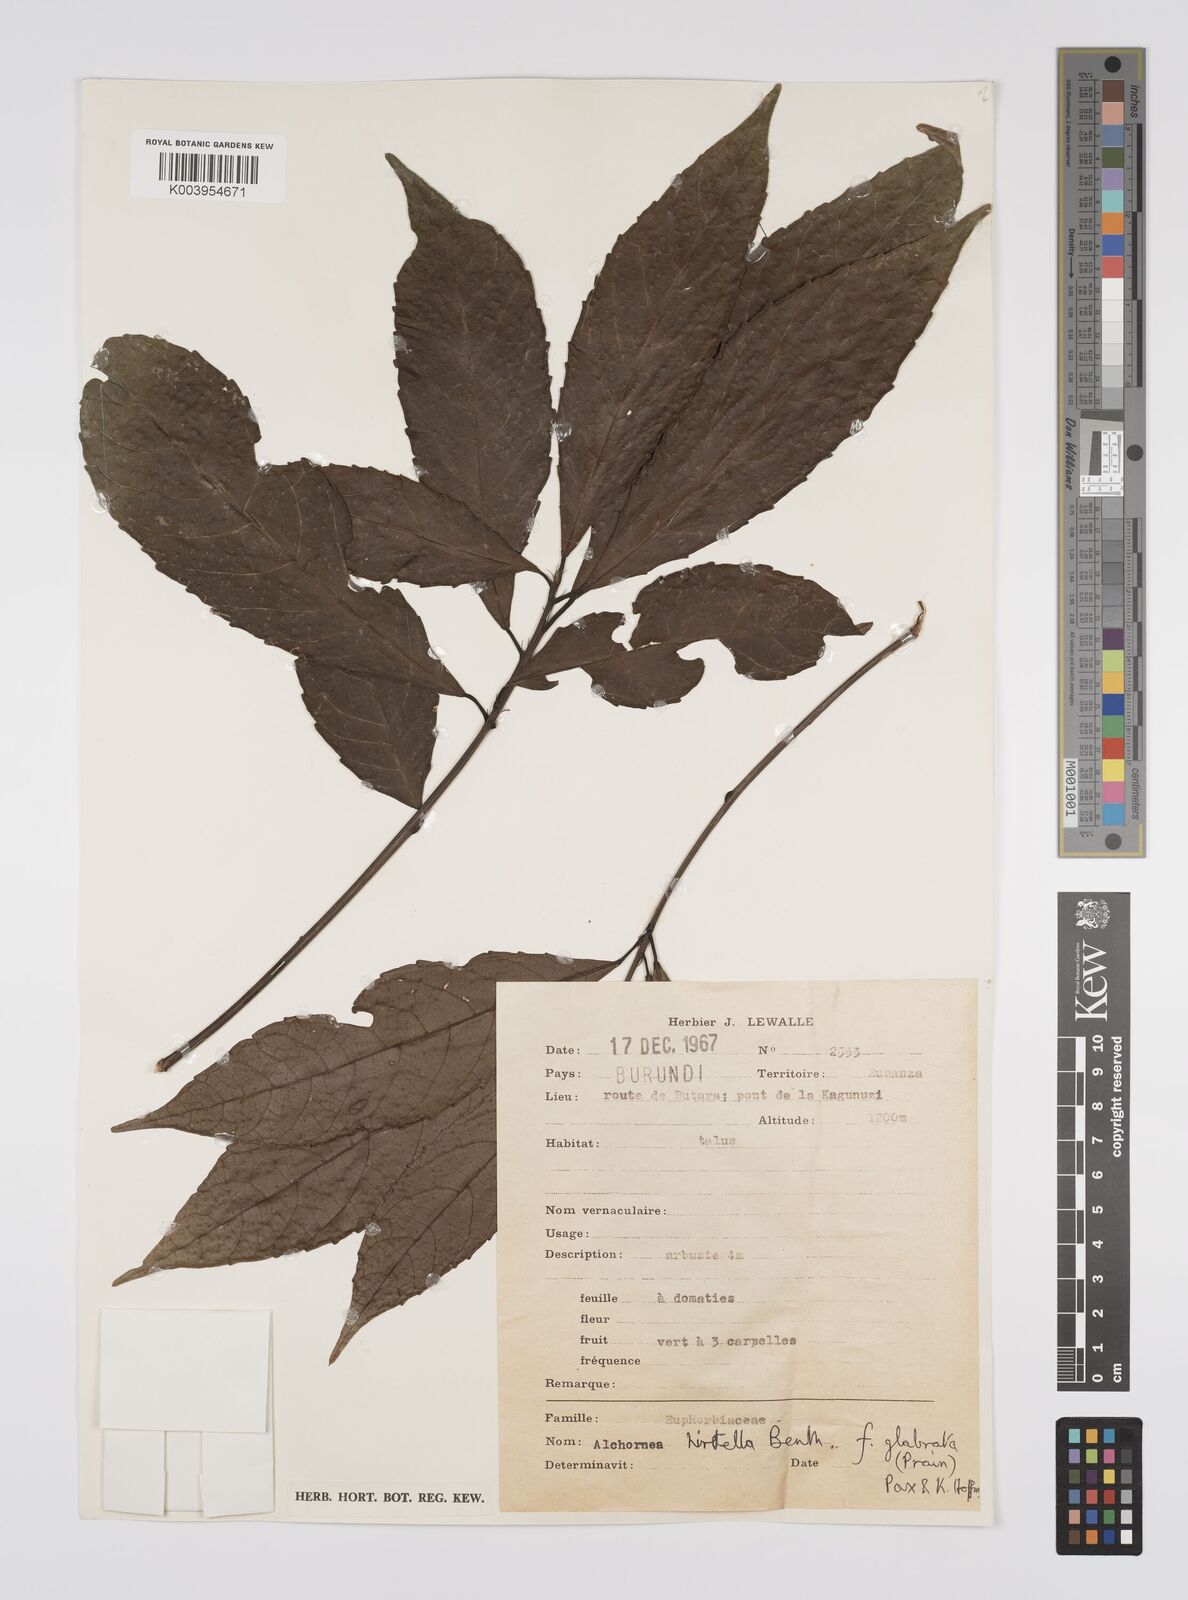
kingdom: Plantae
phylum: Tracheophyta
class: Magnoliopsida
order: Malpighiales
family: Euphorbiaceae
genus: Alchornea
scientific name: Alchornea hirtella
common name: Forest bead-string
